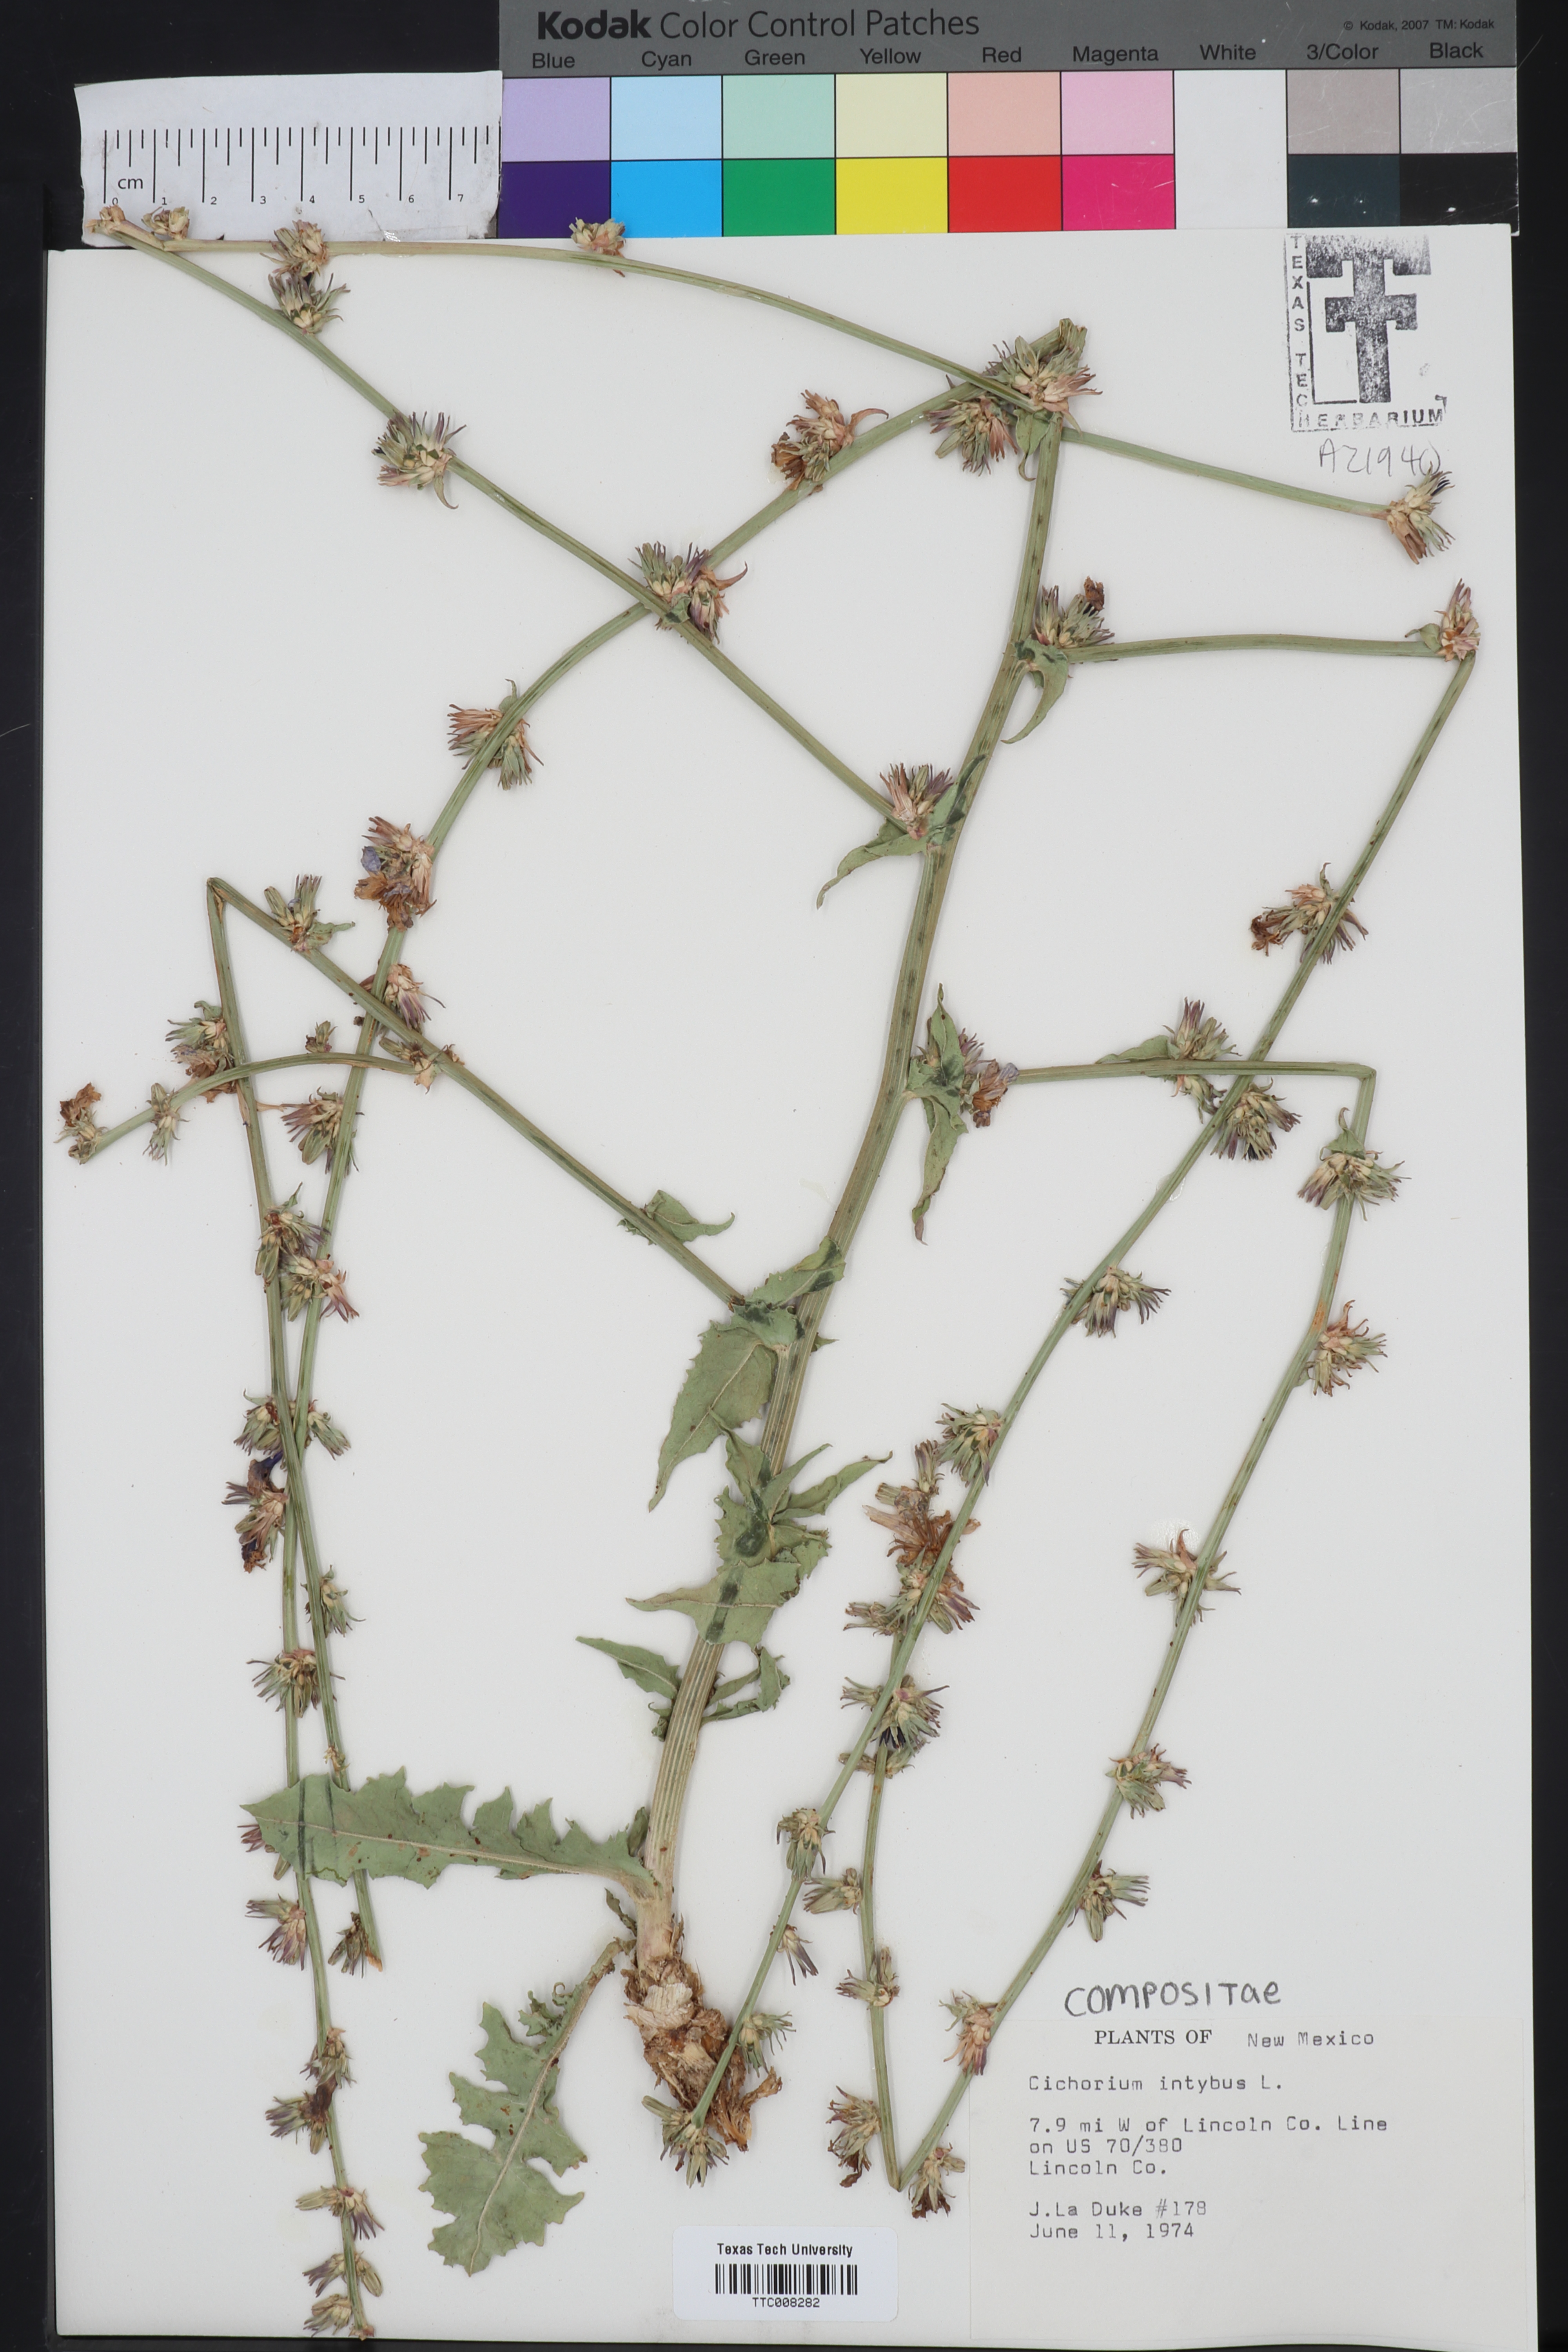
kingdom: Plantae
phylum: Tracheophyta
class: Magnoliopsida
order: Asterales
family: Asteraceae
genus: Cichorium
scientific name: Cichorium intybus
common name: Chicory
